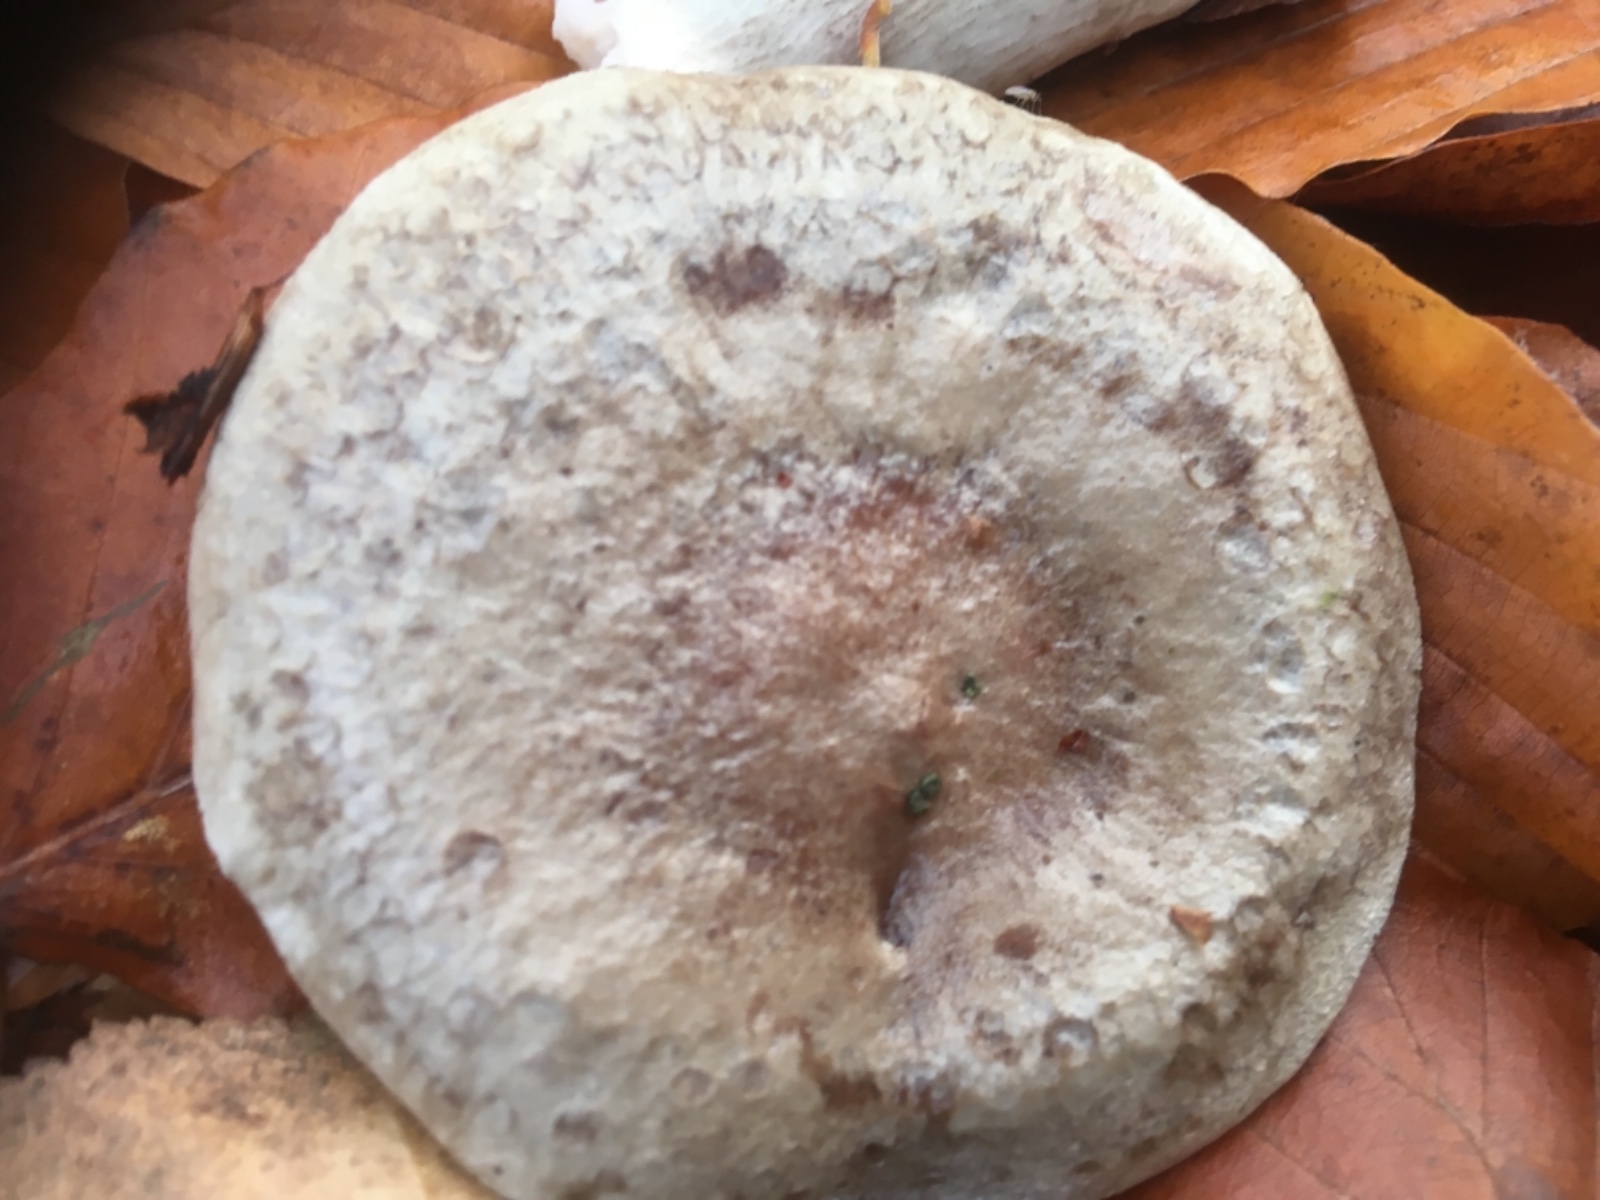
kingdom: Fungi
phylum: Basidiomycota
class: Agaricomycetes
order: Russulales
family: Russulaceae
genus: Lactarius
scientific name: Lactarius blennius
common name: dråbeplettet mælkehat
